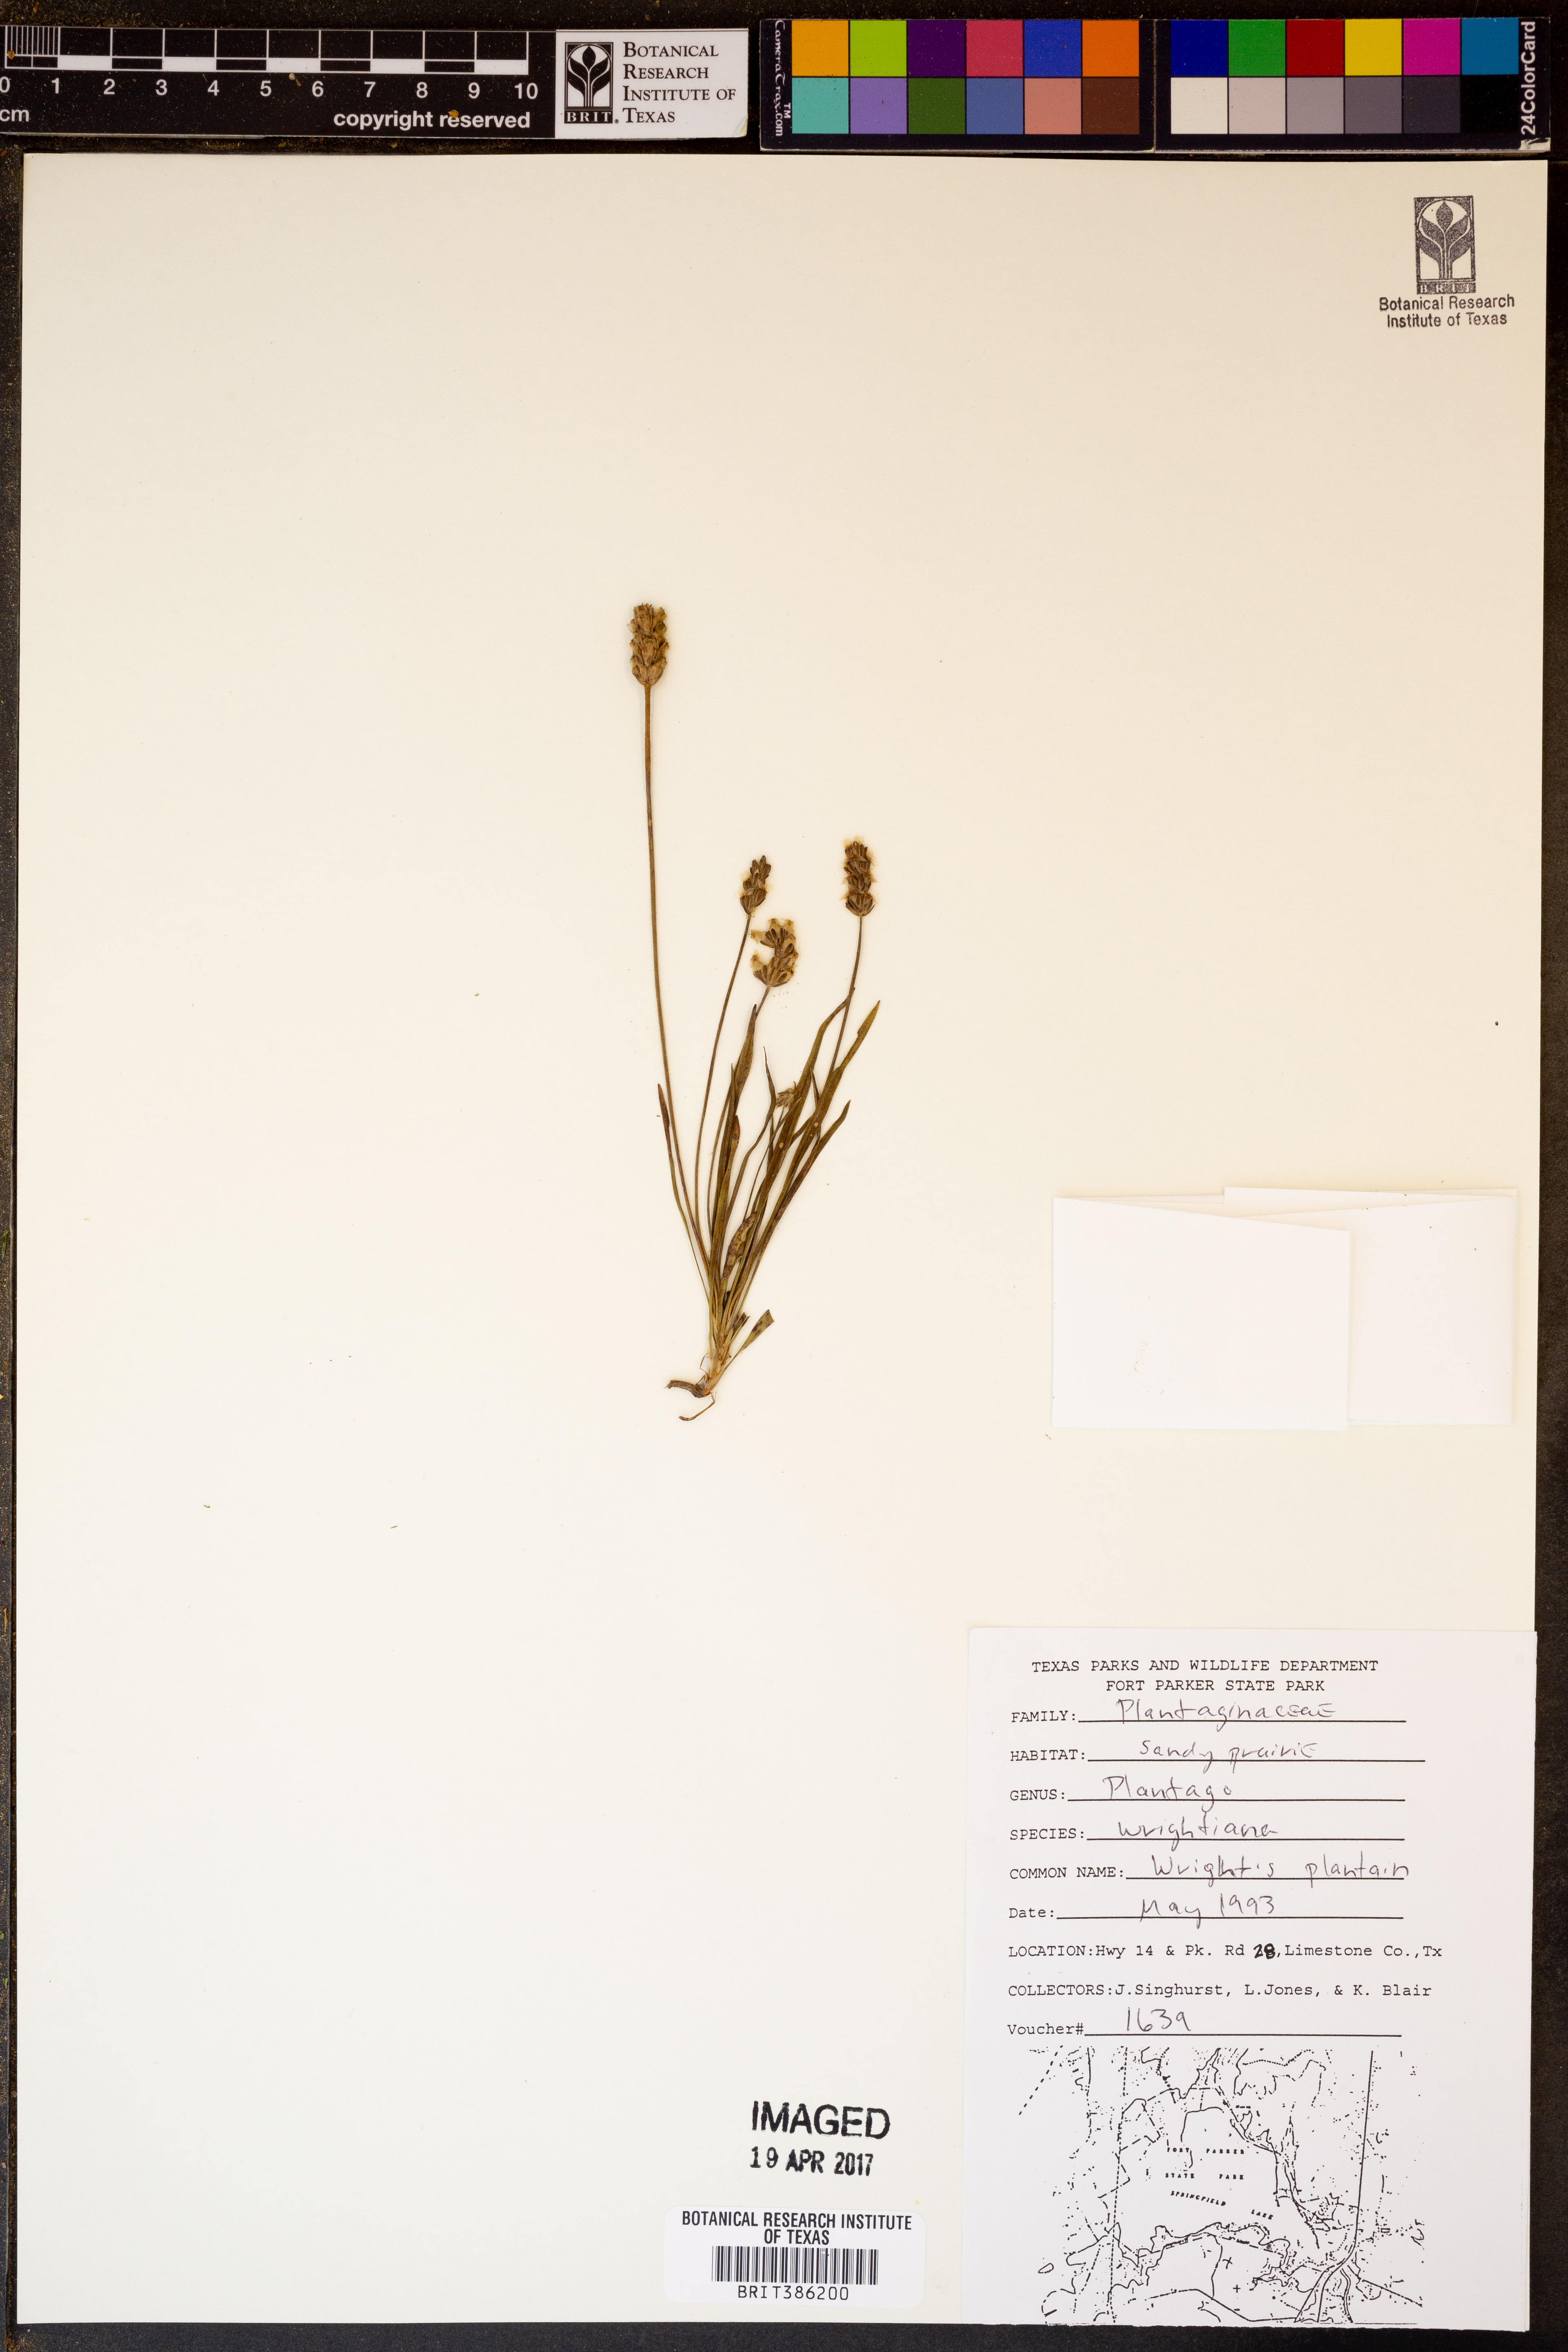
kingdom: Plantae
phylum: Tracheophyta
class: Magnoliopsida
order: Lamiales
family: Plantaginaceae
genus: Plantago
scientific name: Plantago wrightiana
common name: Wright's plantain
